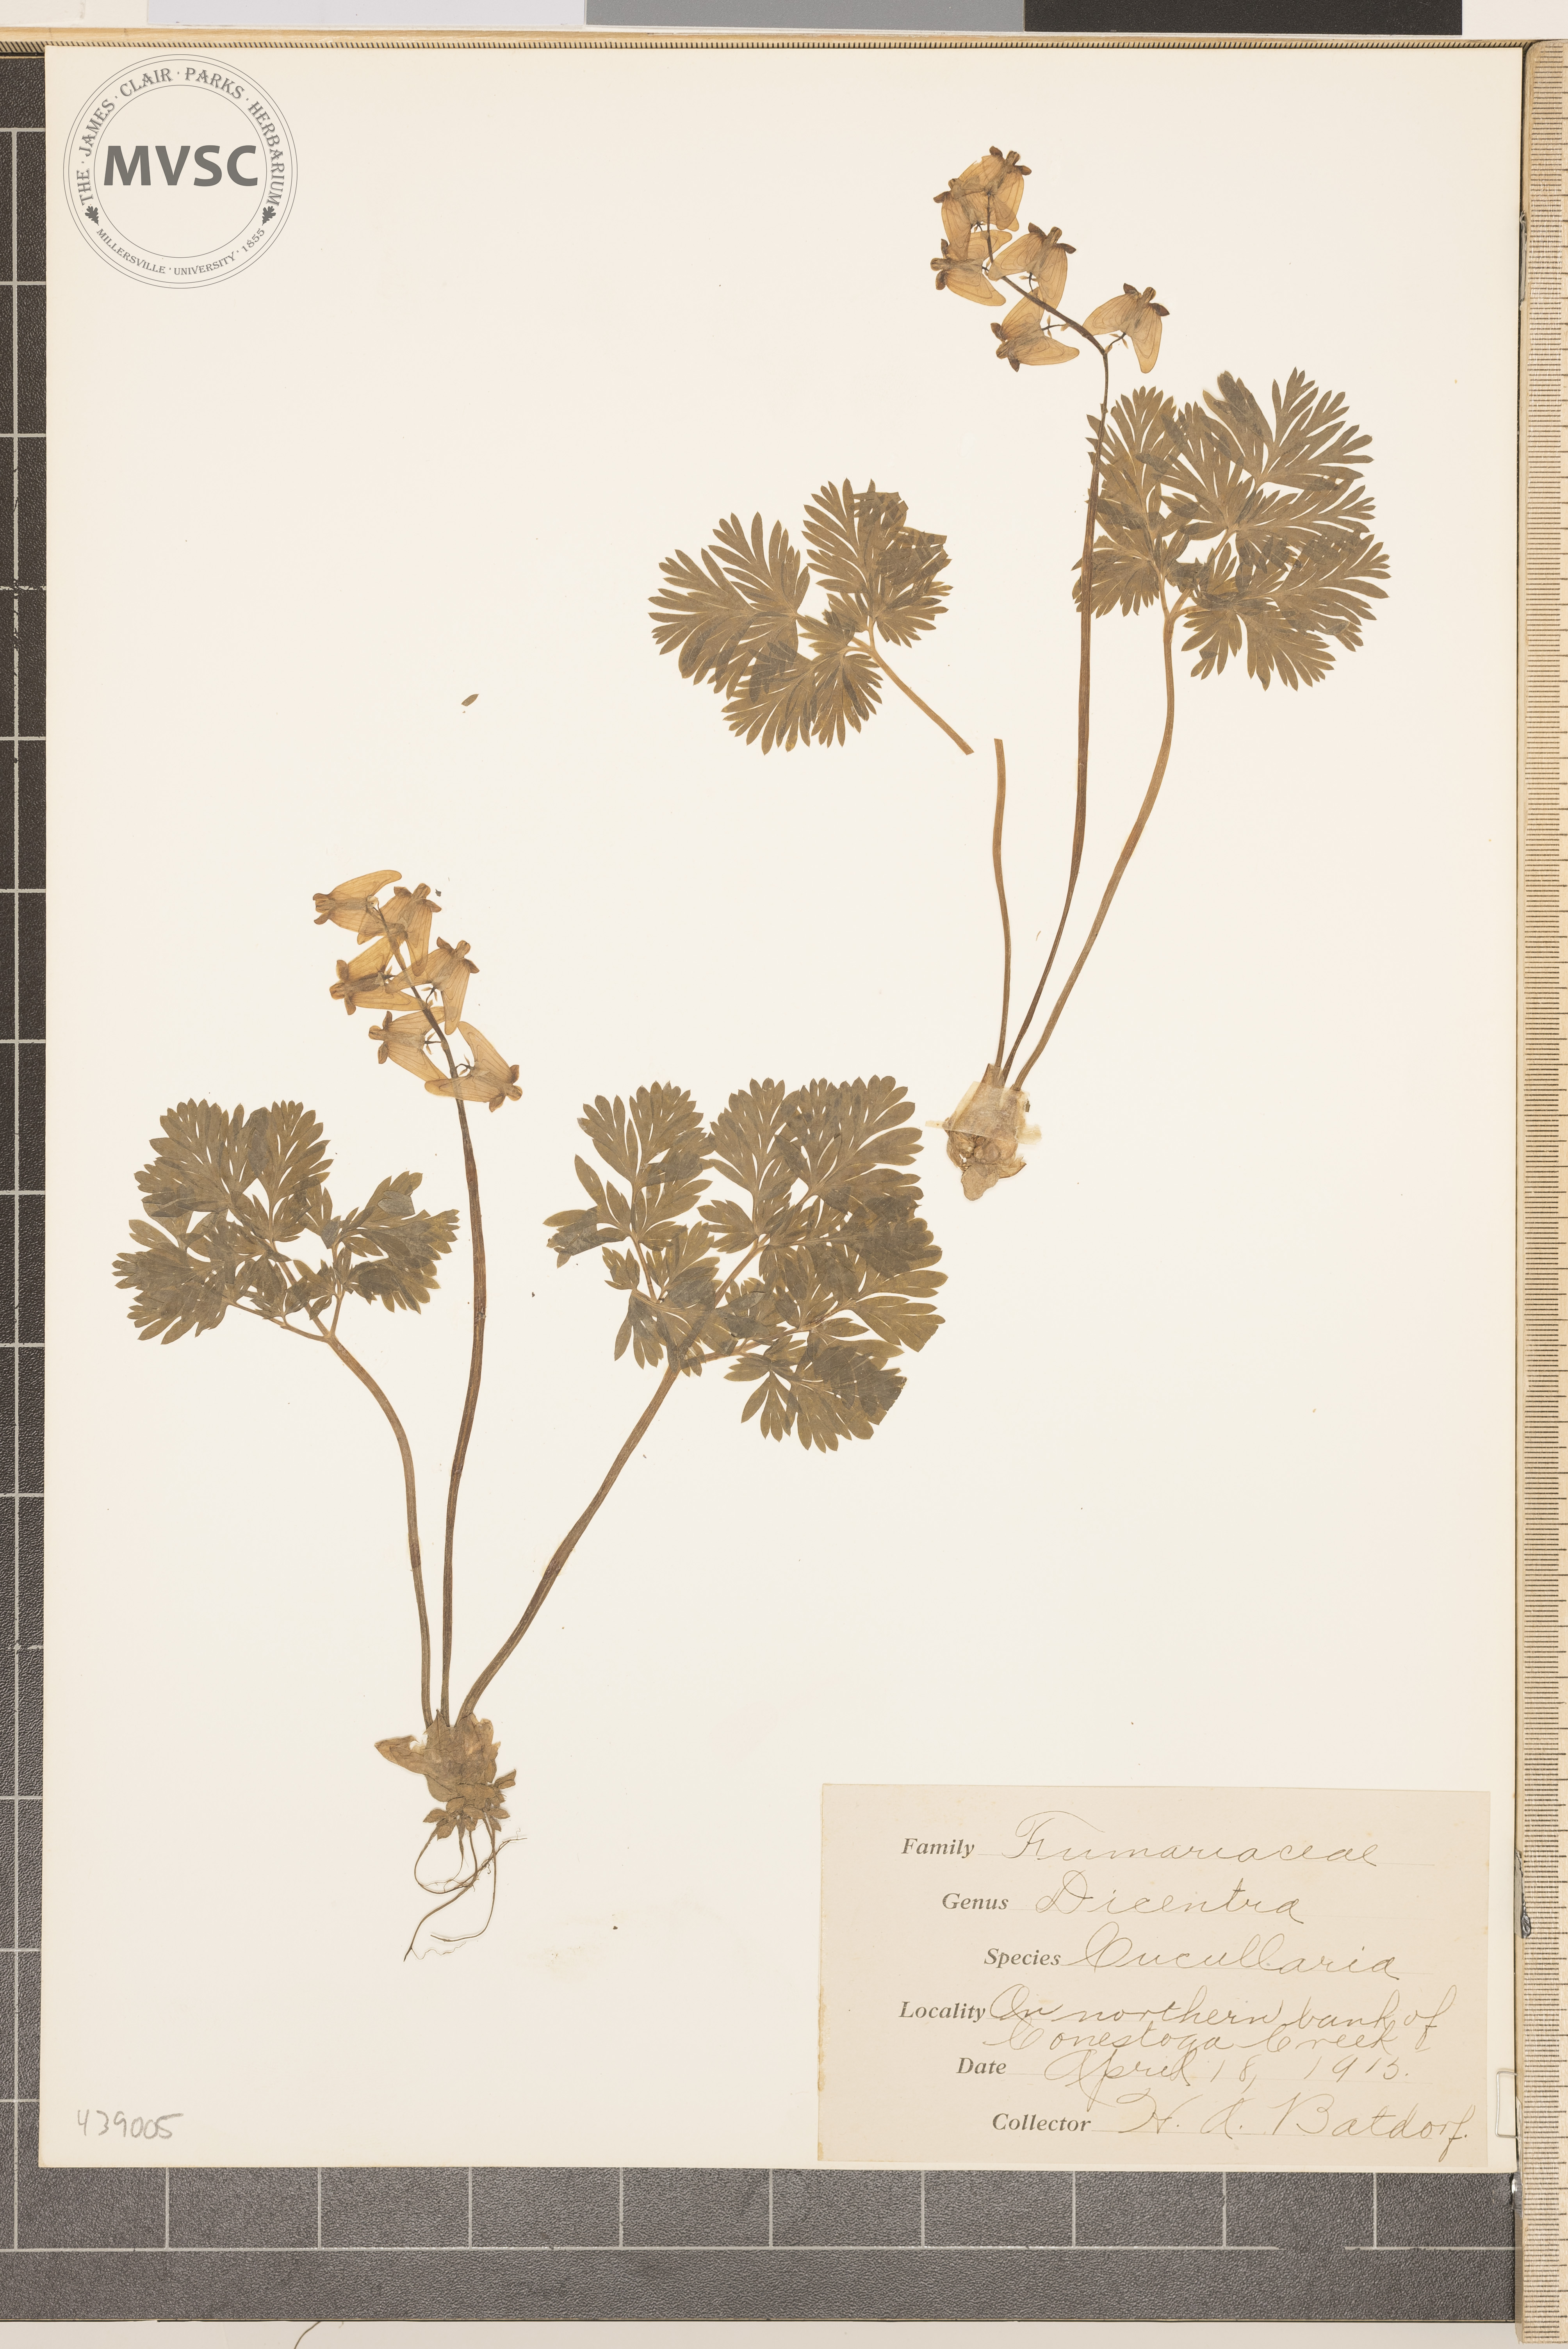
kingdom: Plantae
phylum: Tracheophyta
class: Magnoliopsida
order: Ranunculales
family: Papaveraceae
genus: Dicentra
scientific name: Dicentra cucullaria
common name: Dutchman's breeches
